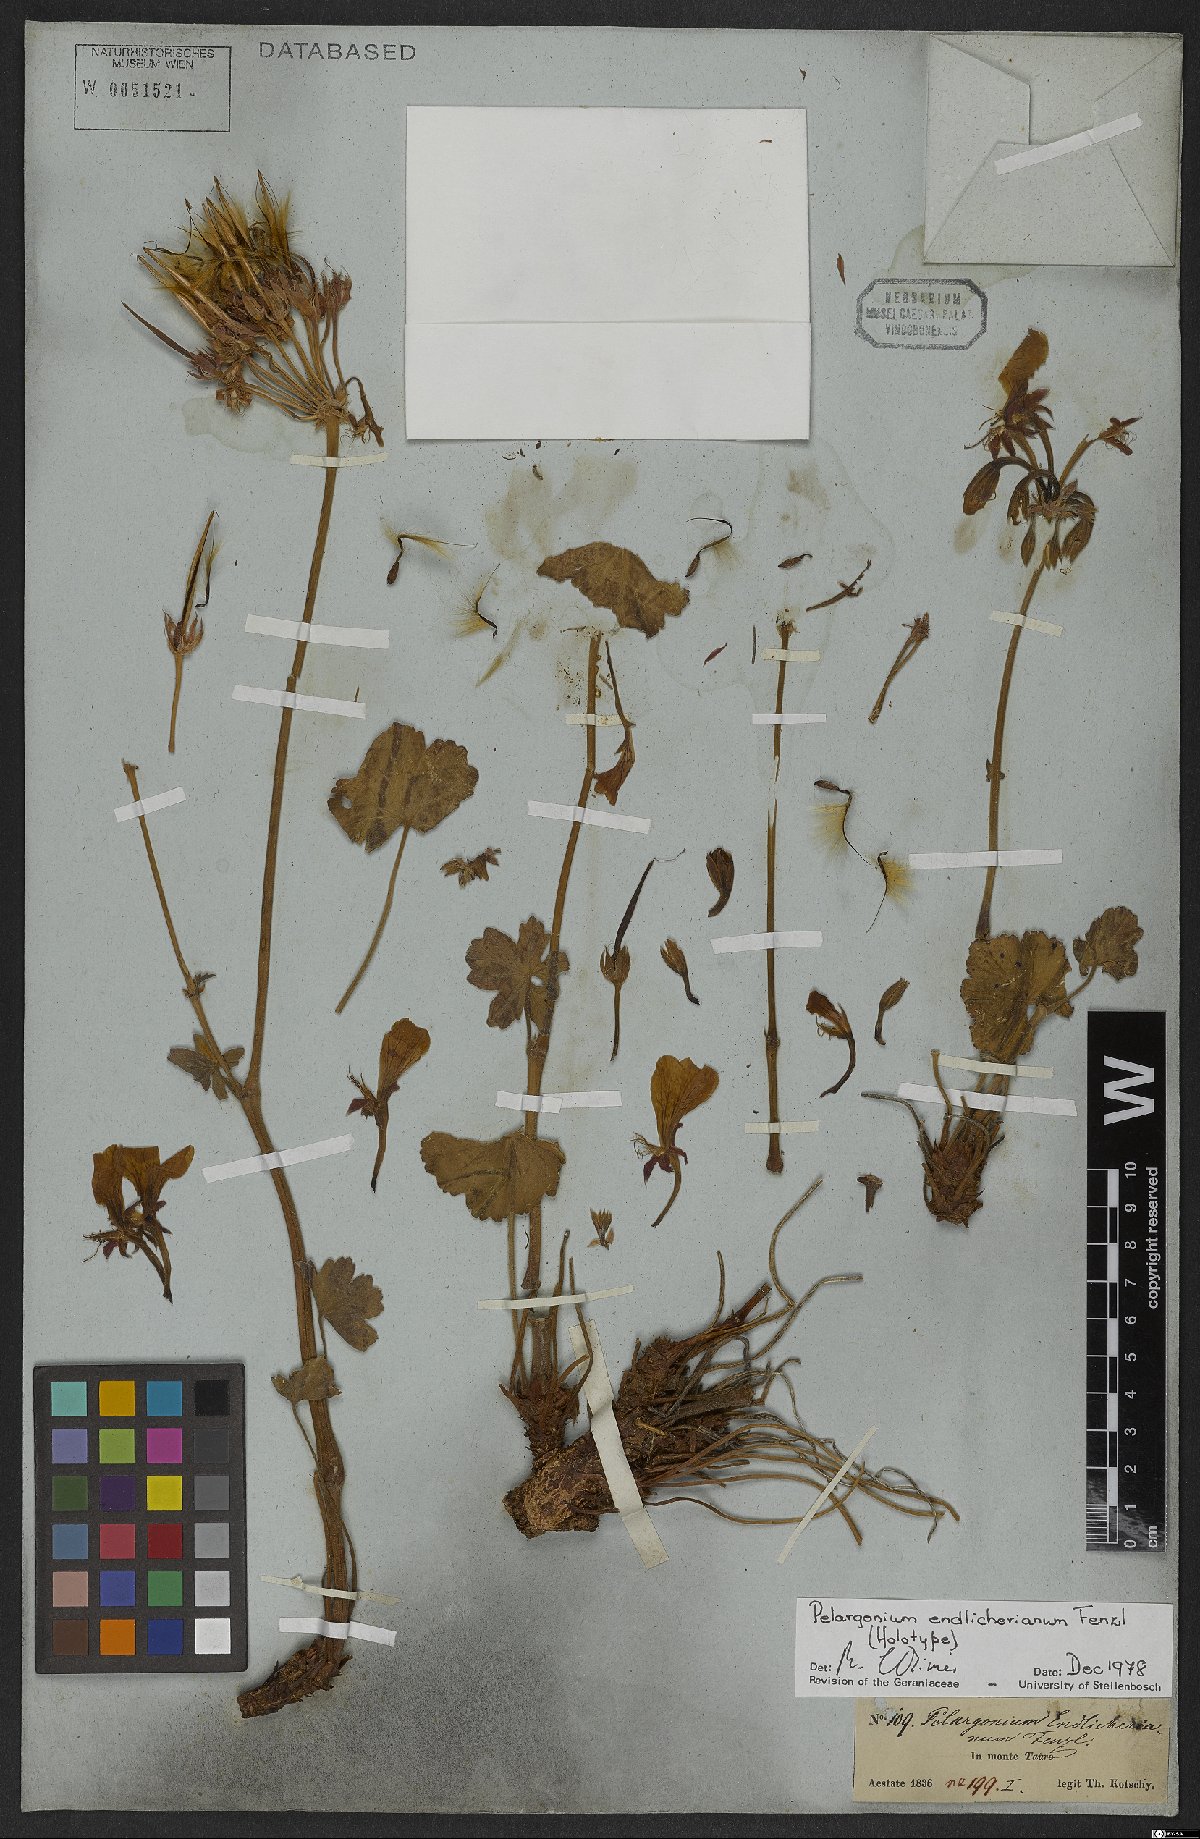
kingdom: Plantae
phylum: Tracheophyta
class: Magnoliopsida
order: Geraniales
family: Geraniaceae
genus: Pelargonium
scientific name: Pelargonium endlicherianum
